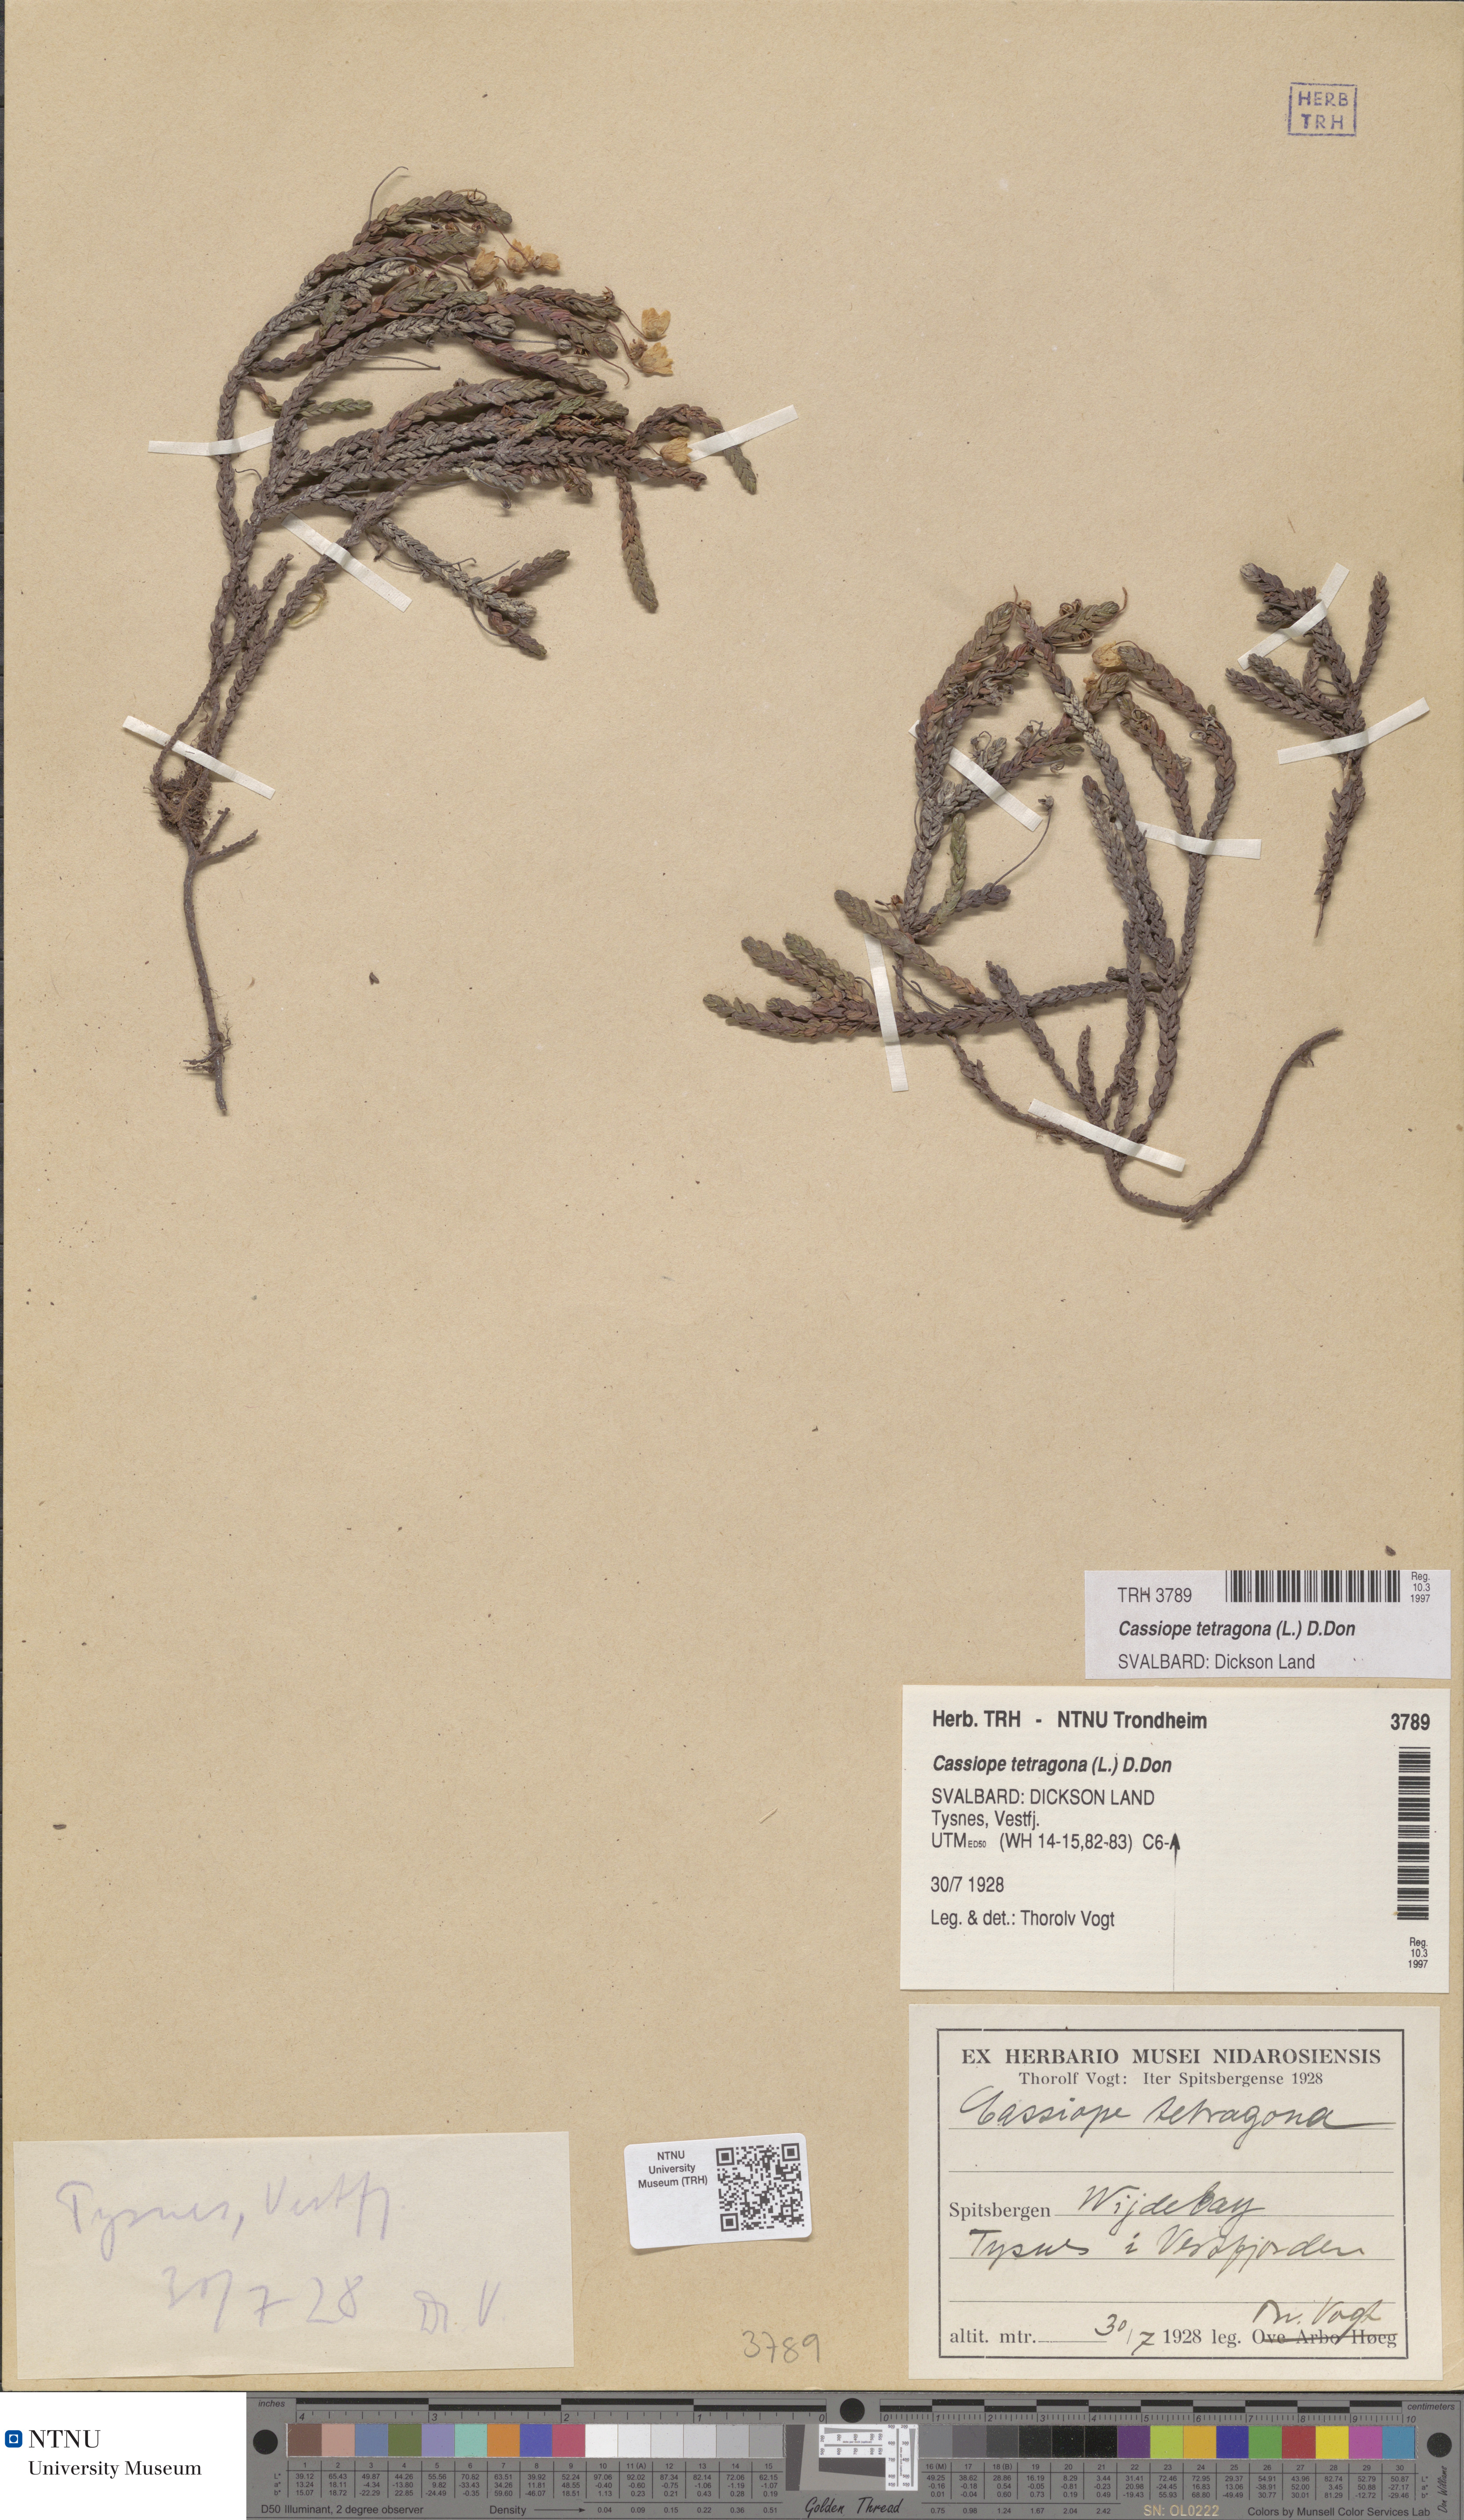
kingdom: Plantae
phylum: Tracheophyta
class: Magnoliopsida
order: Ericales
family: Ericaceae
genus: Cassiope
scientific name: Cassiope tetragona
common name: Arctic bell heather
